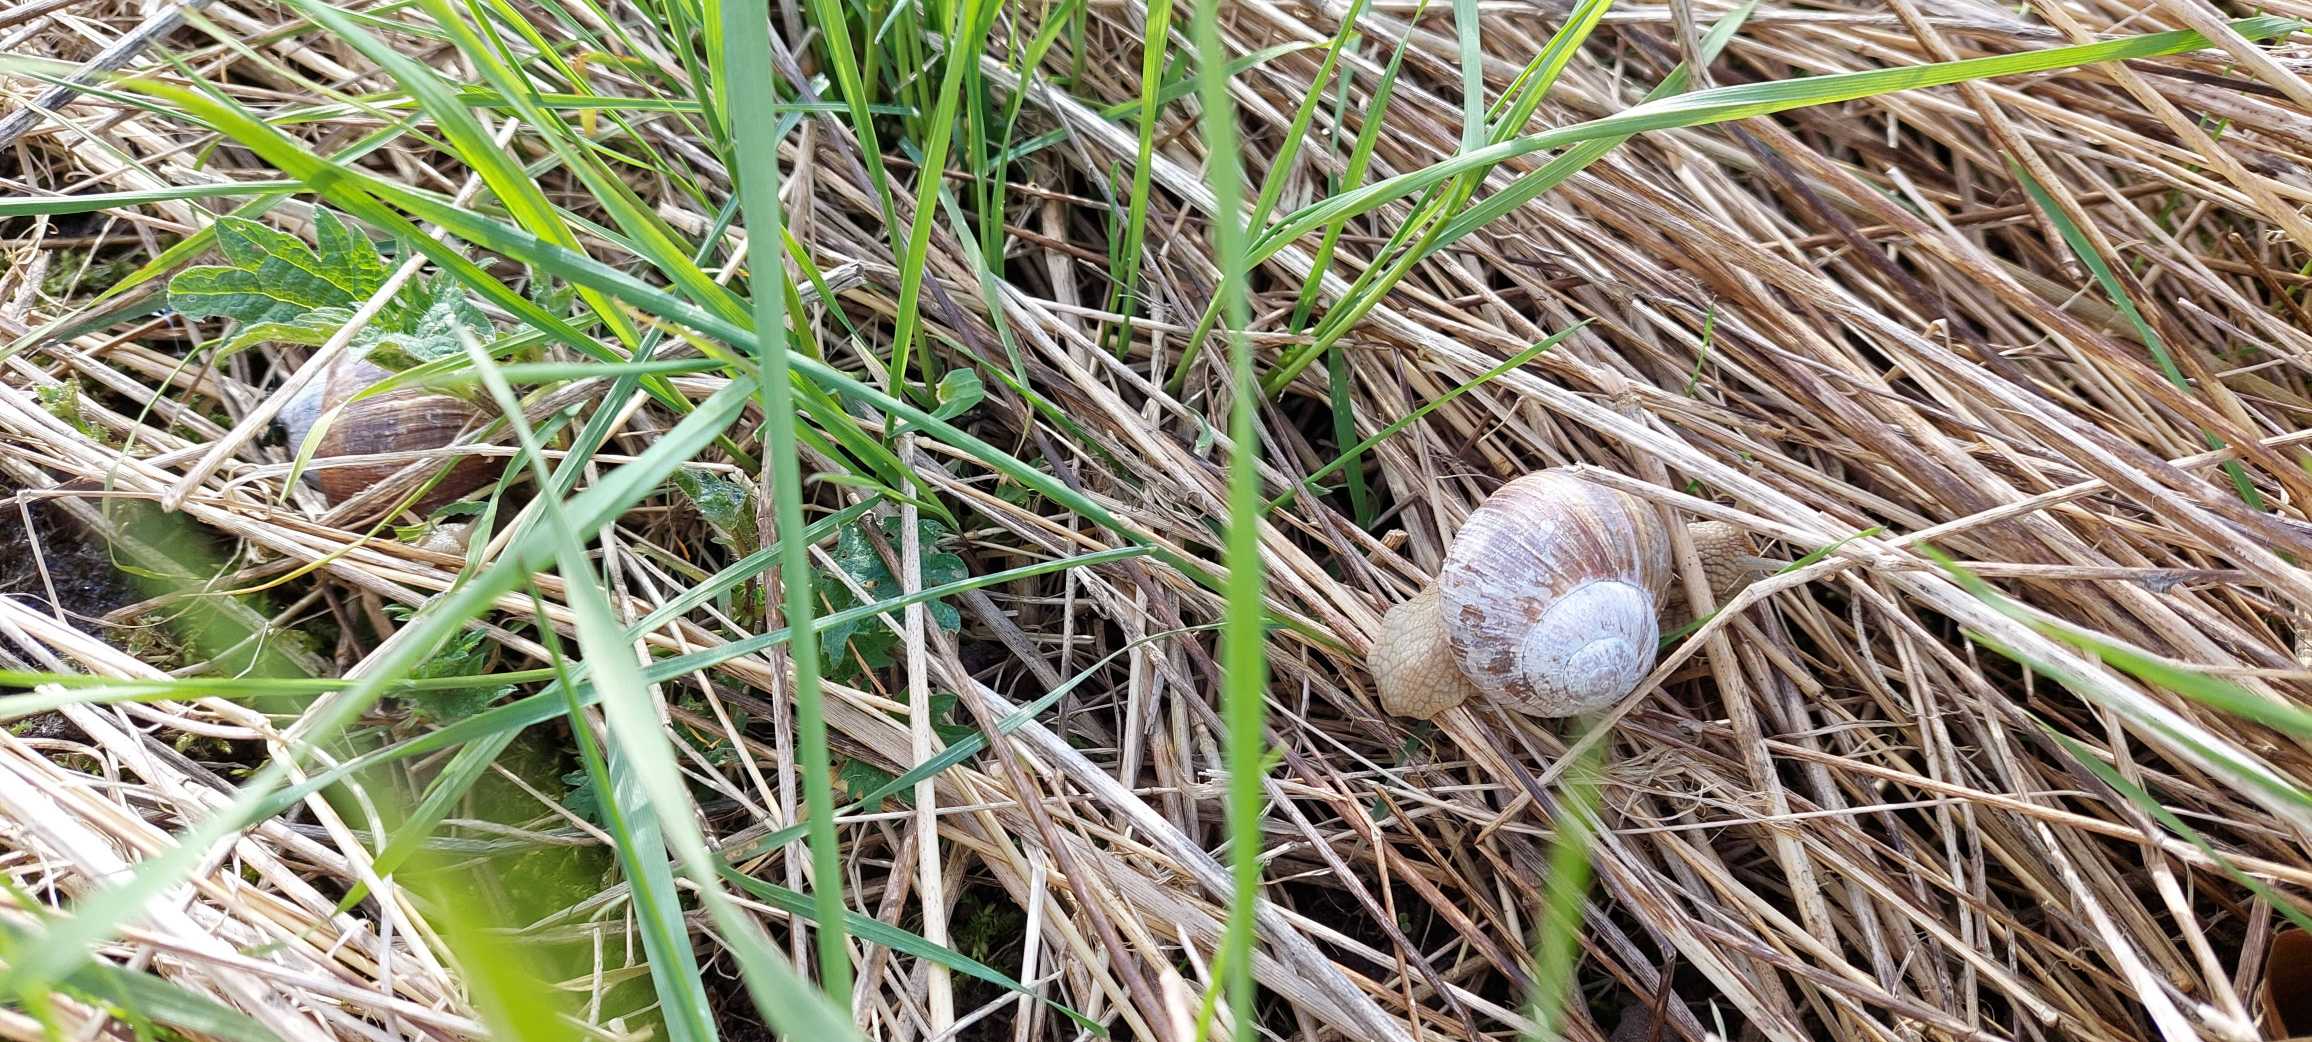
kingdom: Animalia
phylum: Mollusca
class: Gastropoda
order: Stylommatophora
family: Helicidae
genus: Helix
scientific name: Helix pomatia
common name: Vinbjergsnegl
